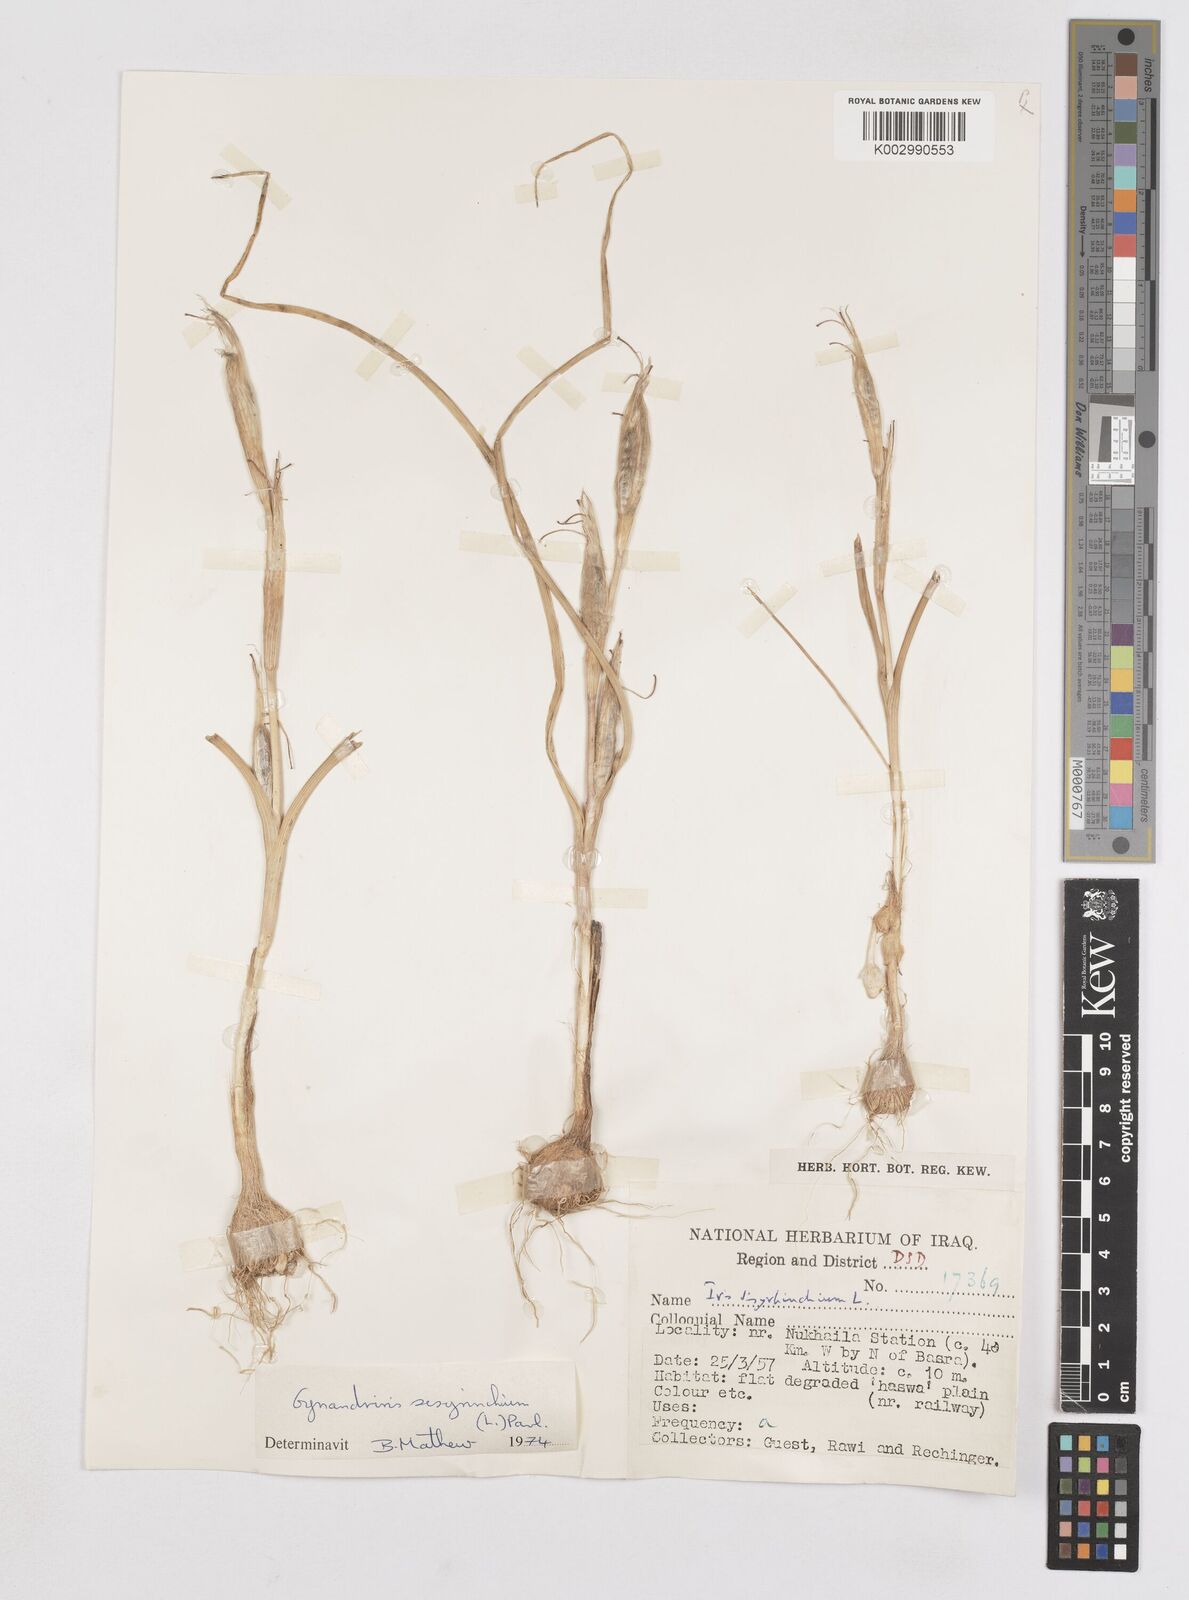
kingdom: Plantae
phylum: Tracheophyta
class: Liliopsida
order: Asparagales
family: Iridaceae
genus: Moraea
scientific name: Moraea sisyrinchium
